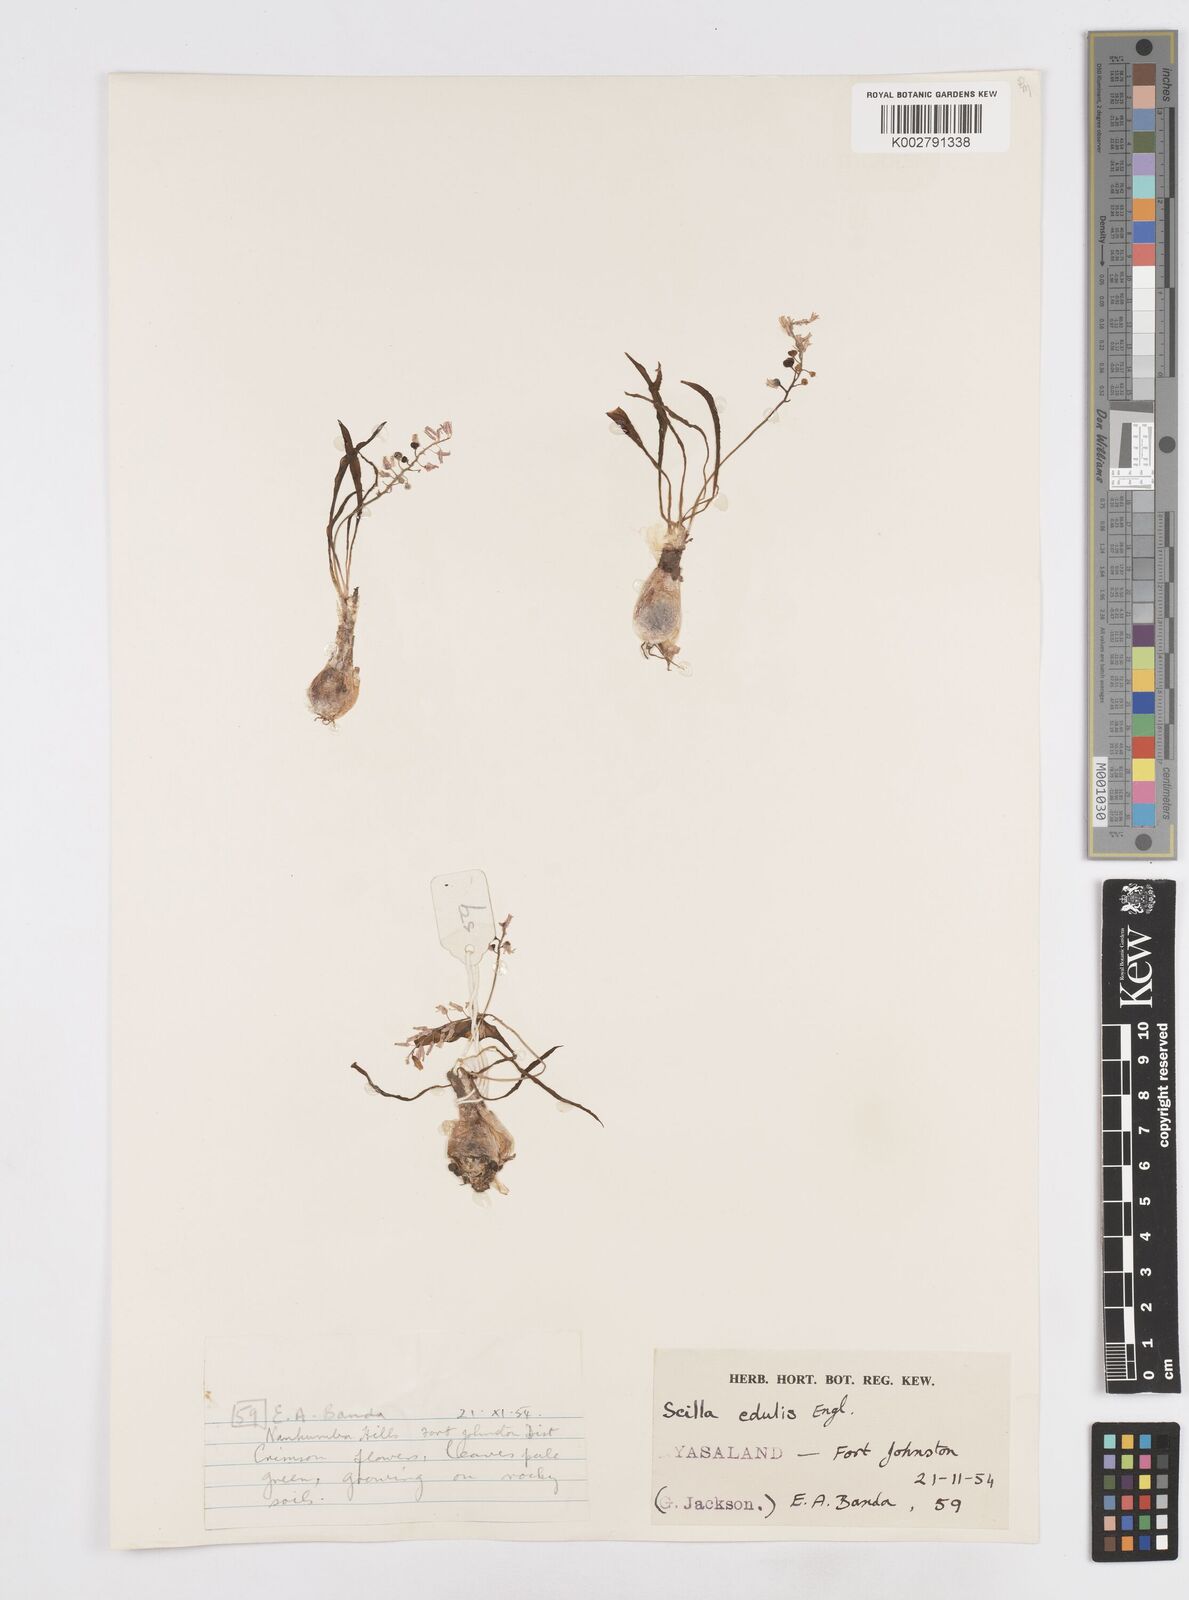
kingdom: Plantae
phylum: Tracheophyta
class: Liliopsida
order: Asparagales
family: Asparagaceae
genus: Ledebouria
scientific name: Ledebouria edulis
